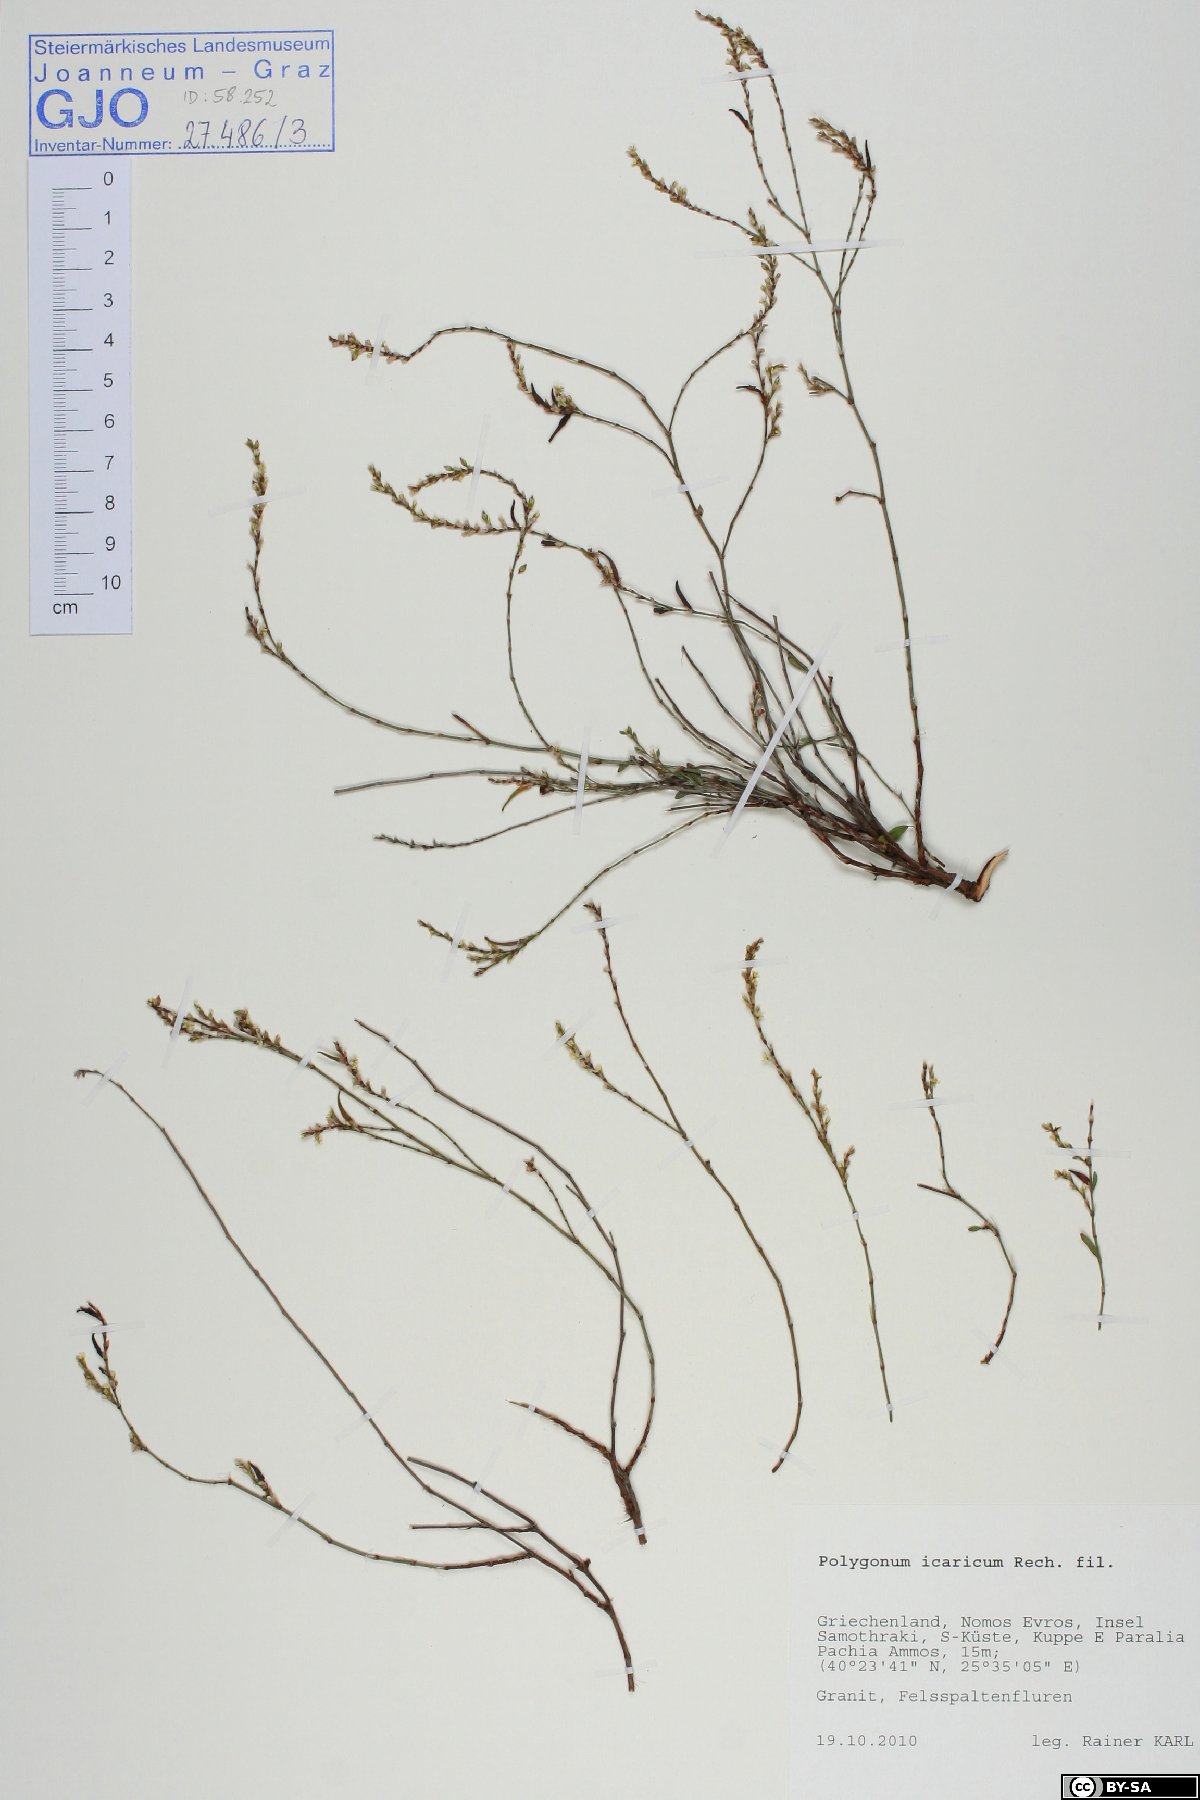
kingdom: Plantae
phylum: Tracheophyta
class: Magnoliopsida
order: Caryophyllales
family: Polygonaceae
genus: Polygonum
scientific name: Polygonum icaricum
